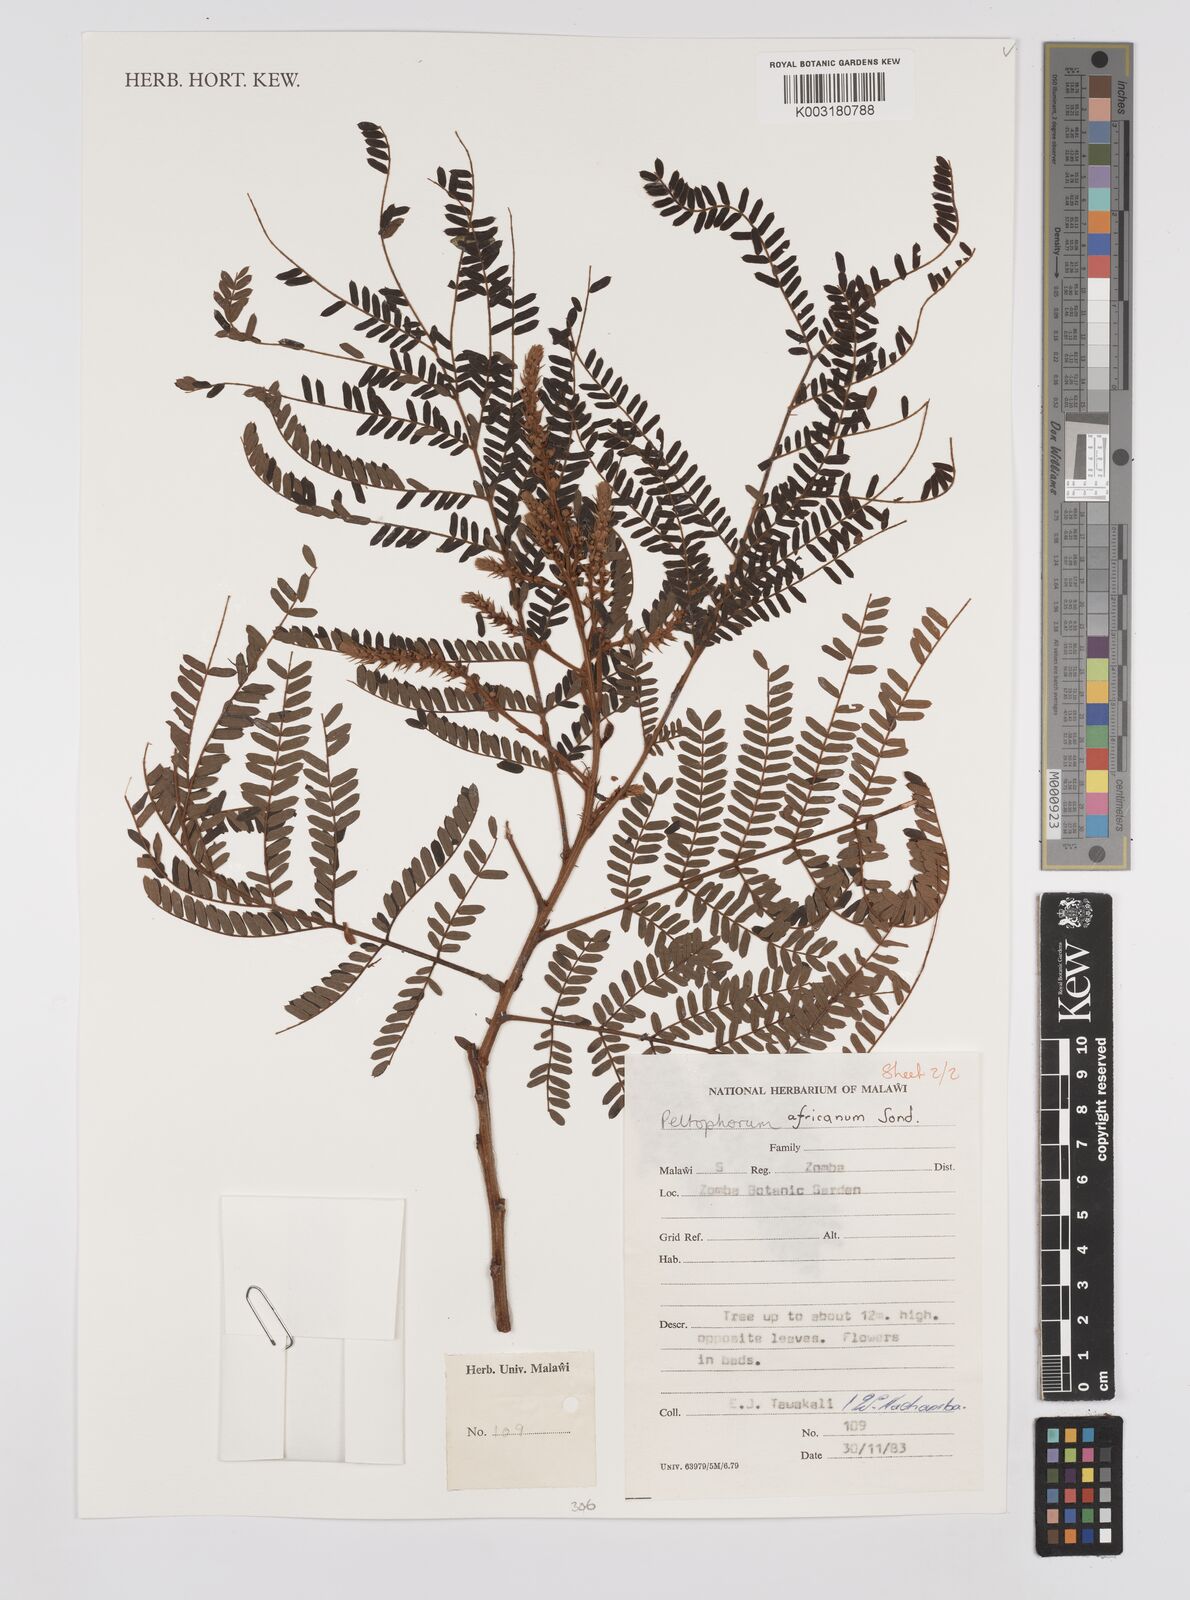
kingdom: Plantae
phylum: Tracheophyta
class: Magnoliopsida
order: Fabales
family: Fabaceae
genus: Peltophorum
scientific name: Peltophorum africanum
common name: African black wattle
